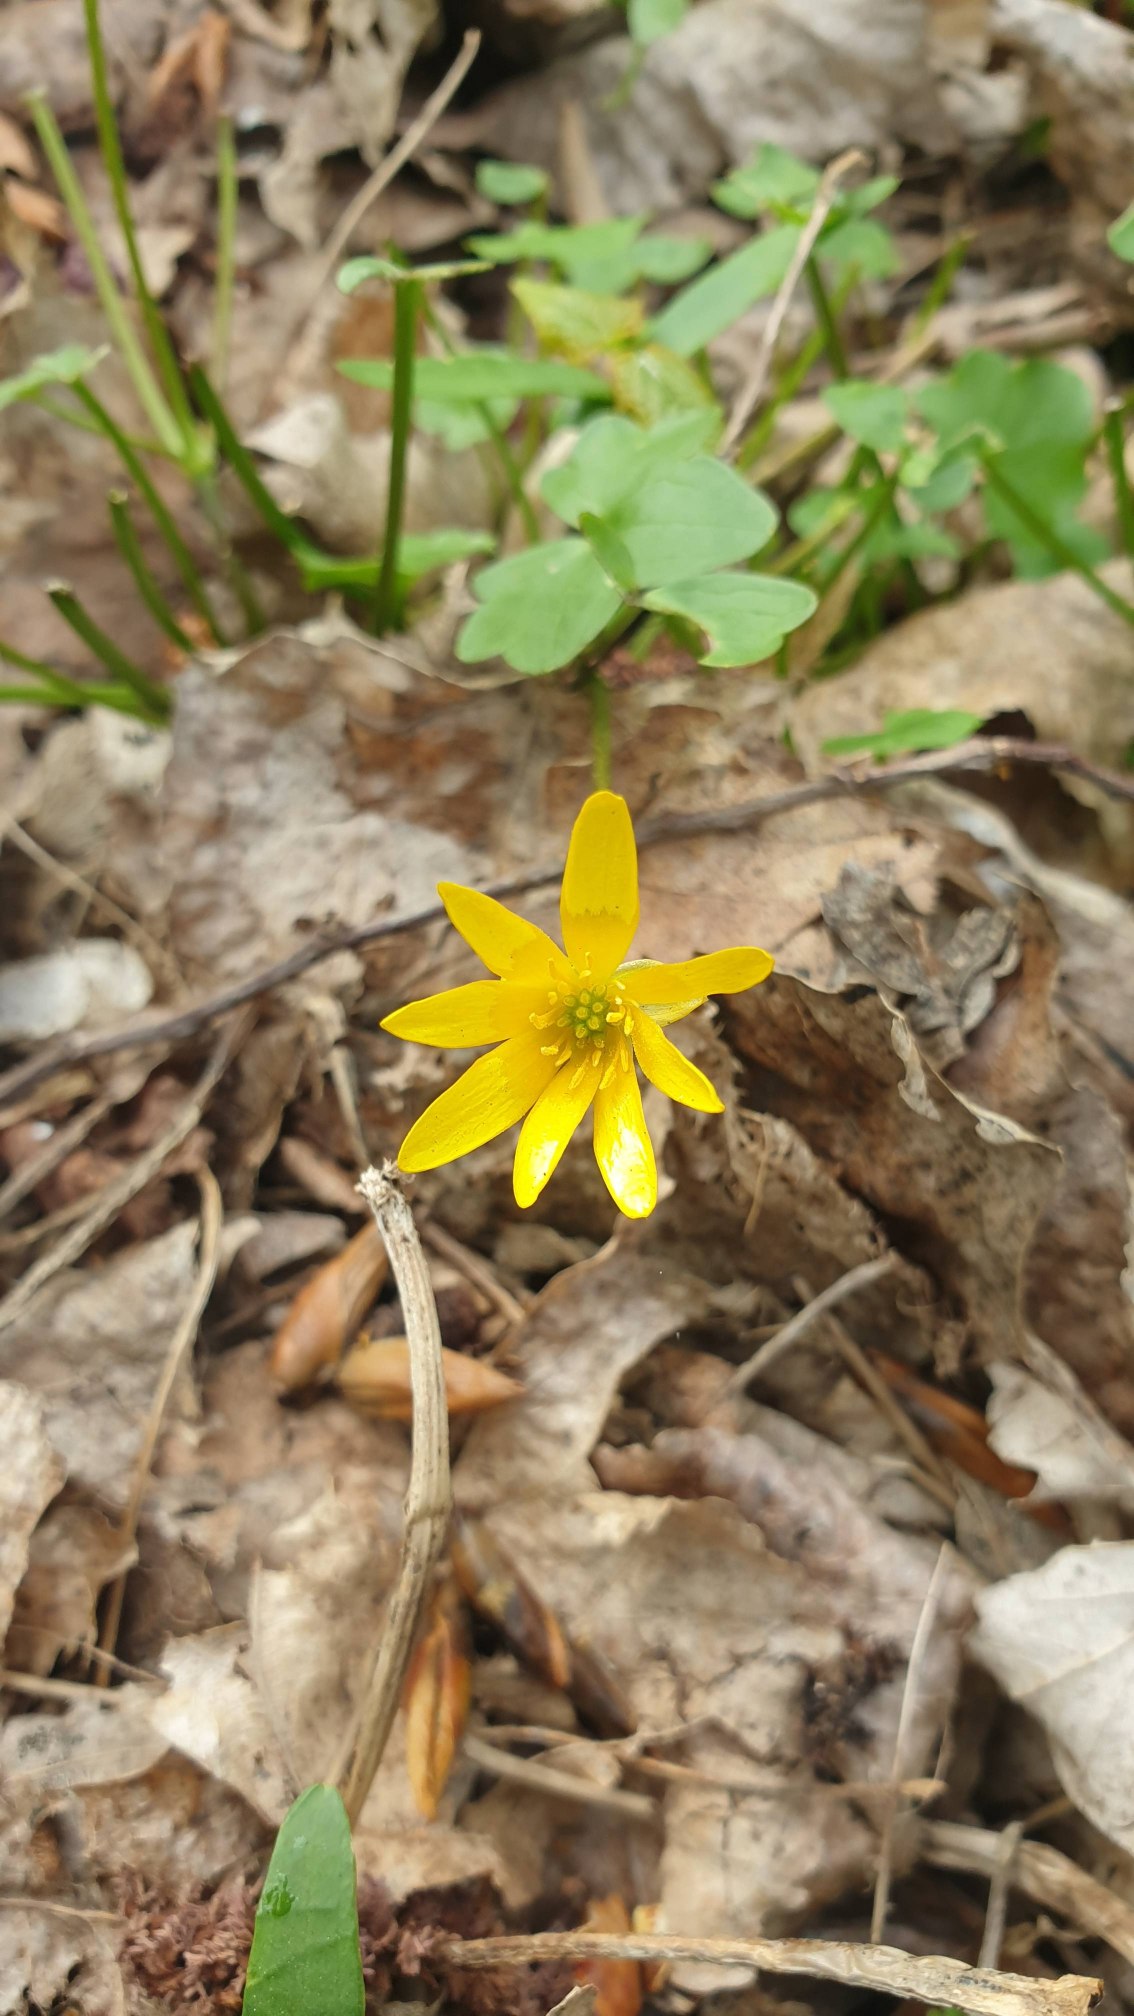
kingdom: Plantae
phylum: Tracheophyta
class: Magnoliopsida
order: Ranunculales
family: Ranunculaceae
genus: Ficaria
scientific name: Ficaria verna
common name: Vorterod
